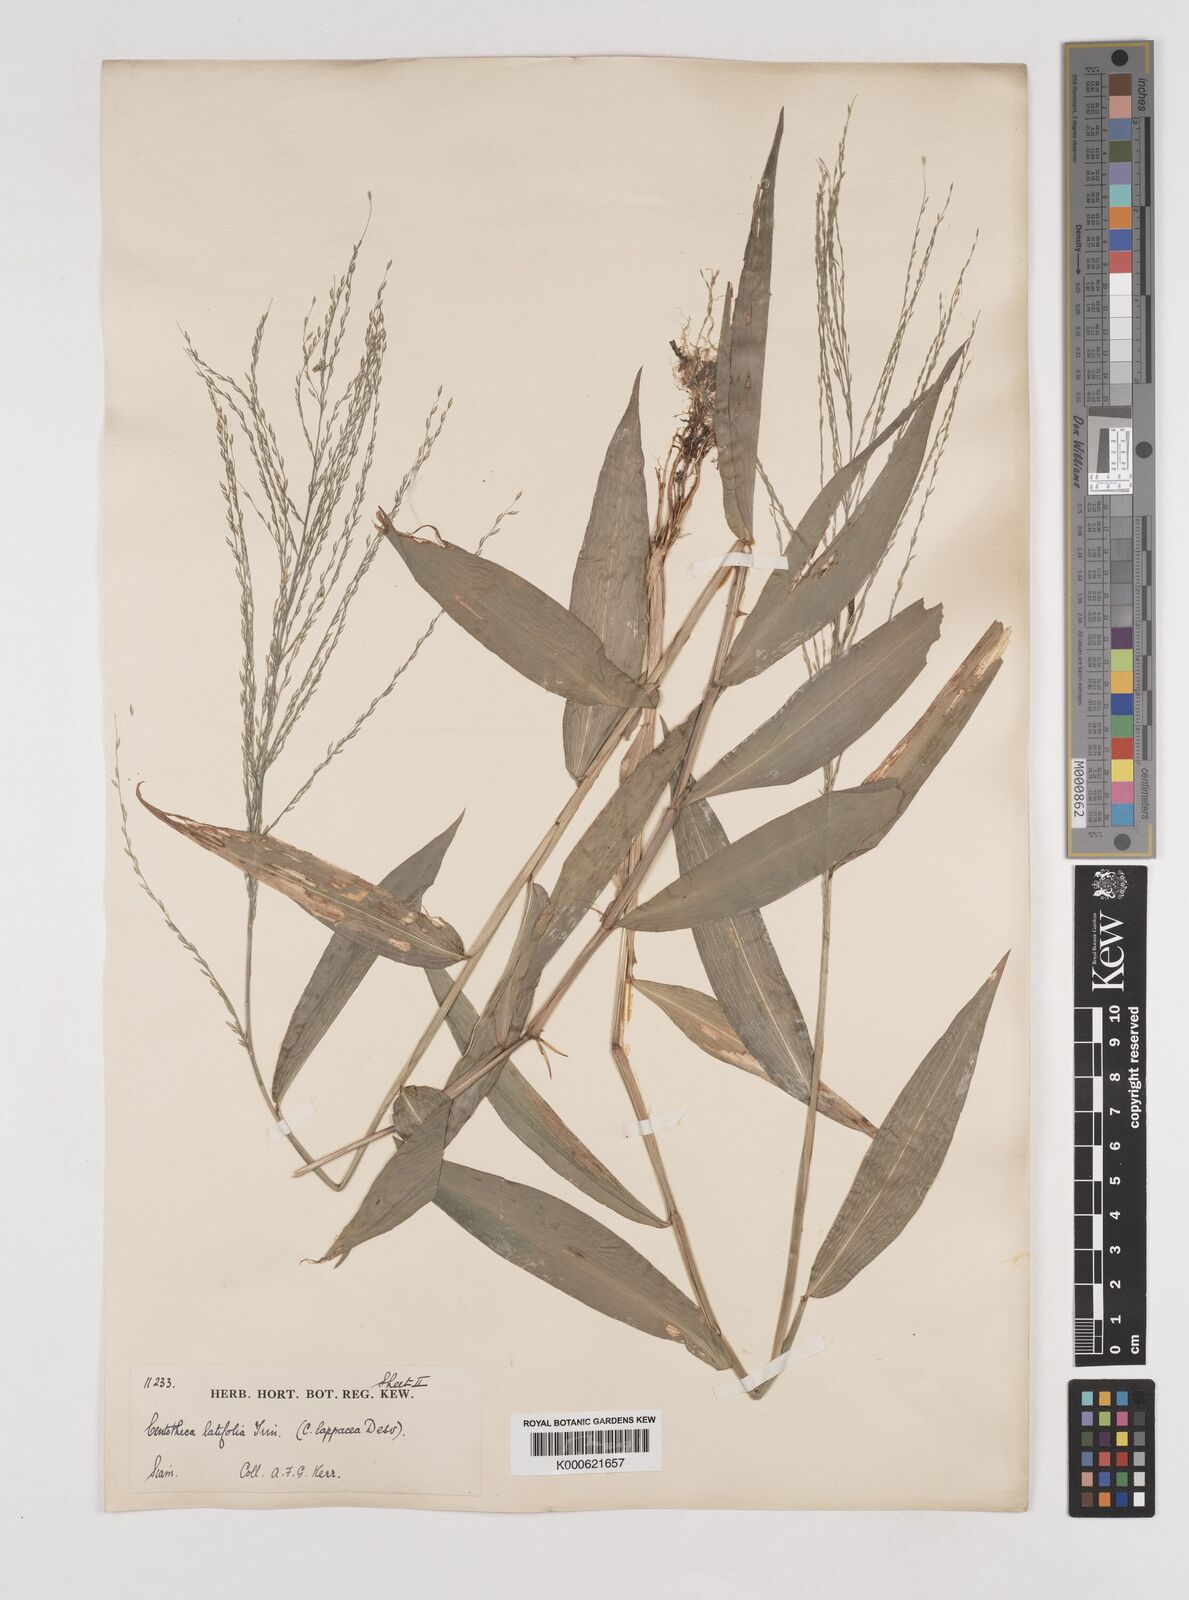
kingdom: Plantae
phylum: Tracheophyta
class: Liliopsida
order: Poales
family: Poaceae
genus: Centotheca
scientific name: Centotheca lappacea
